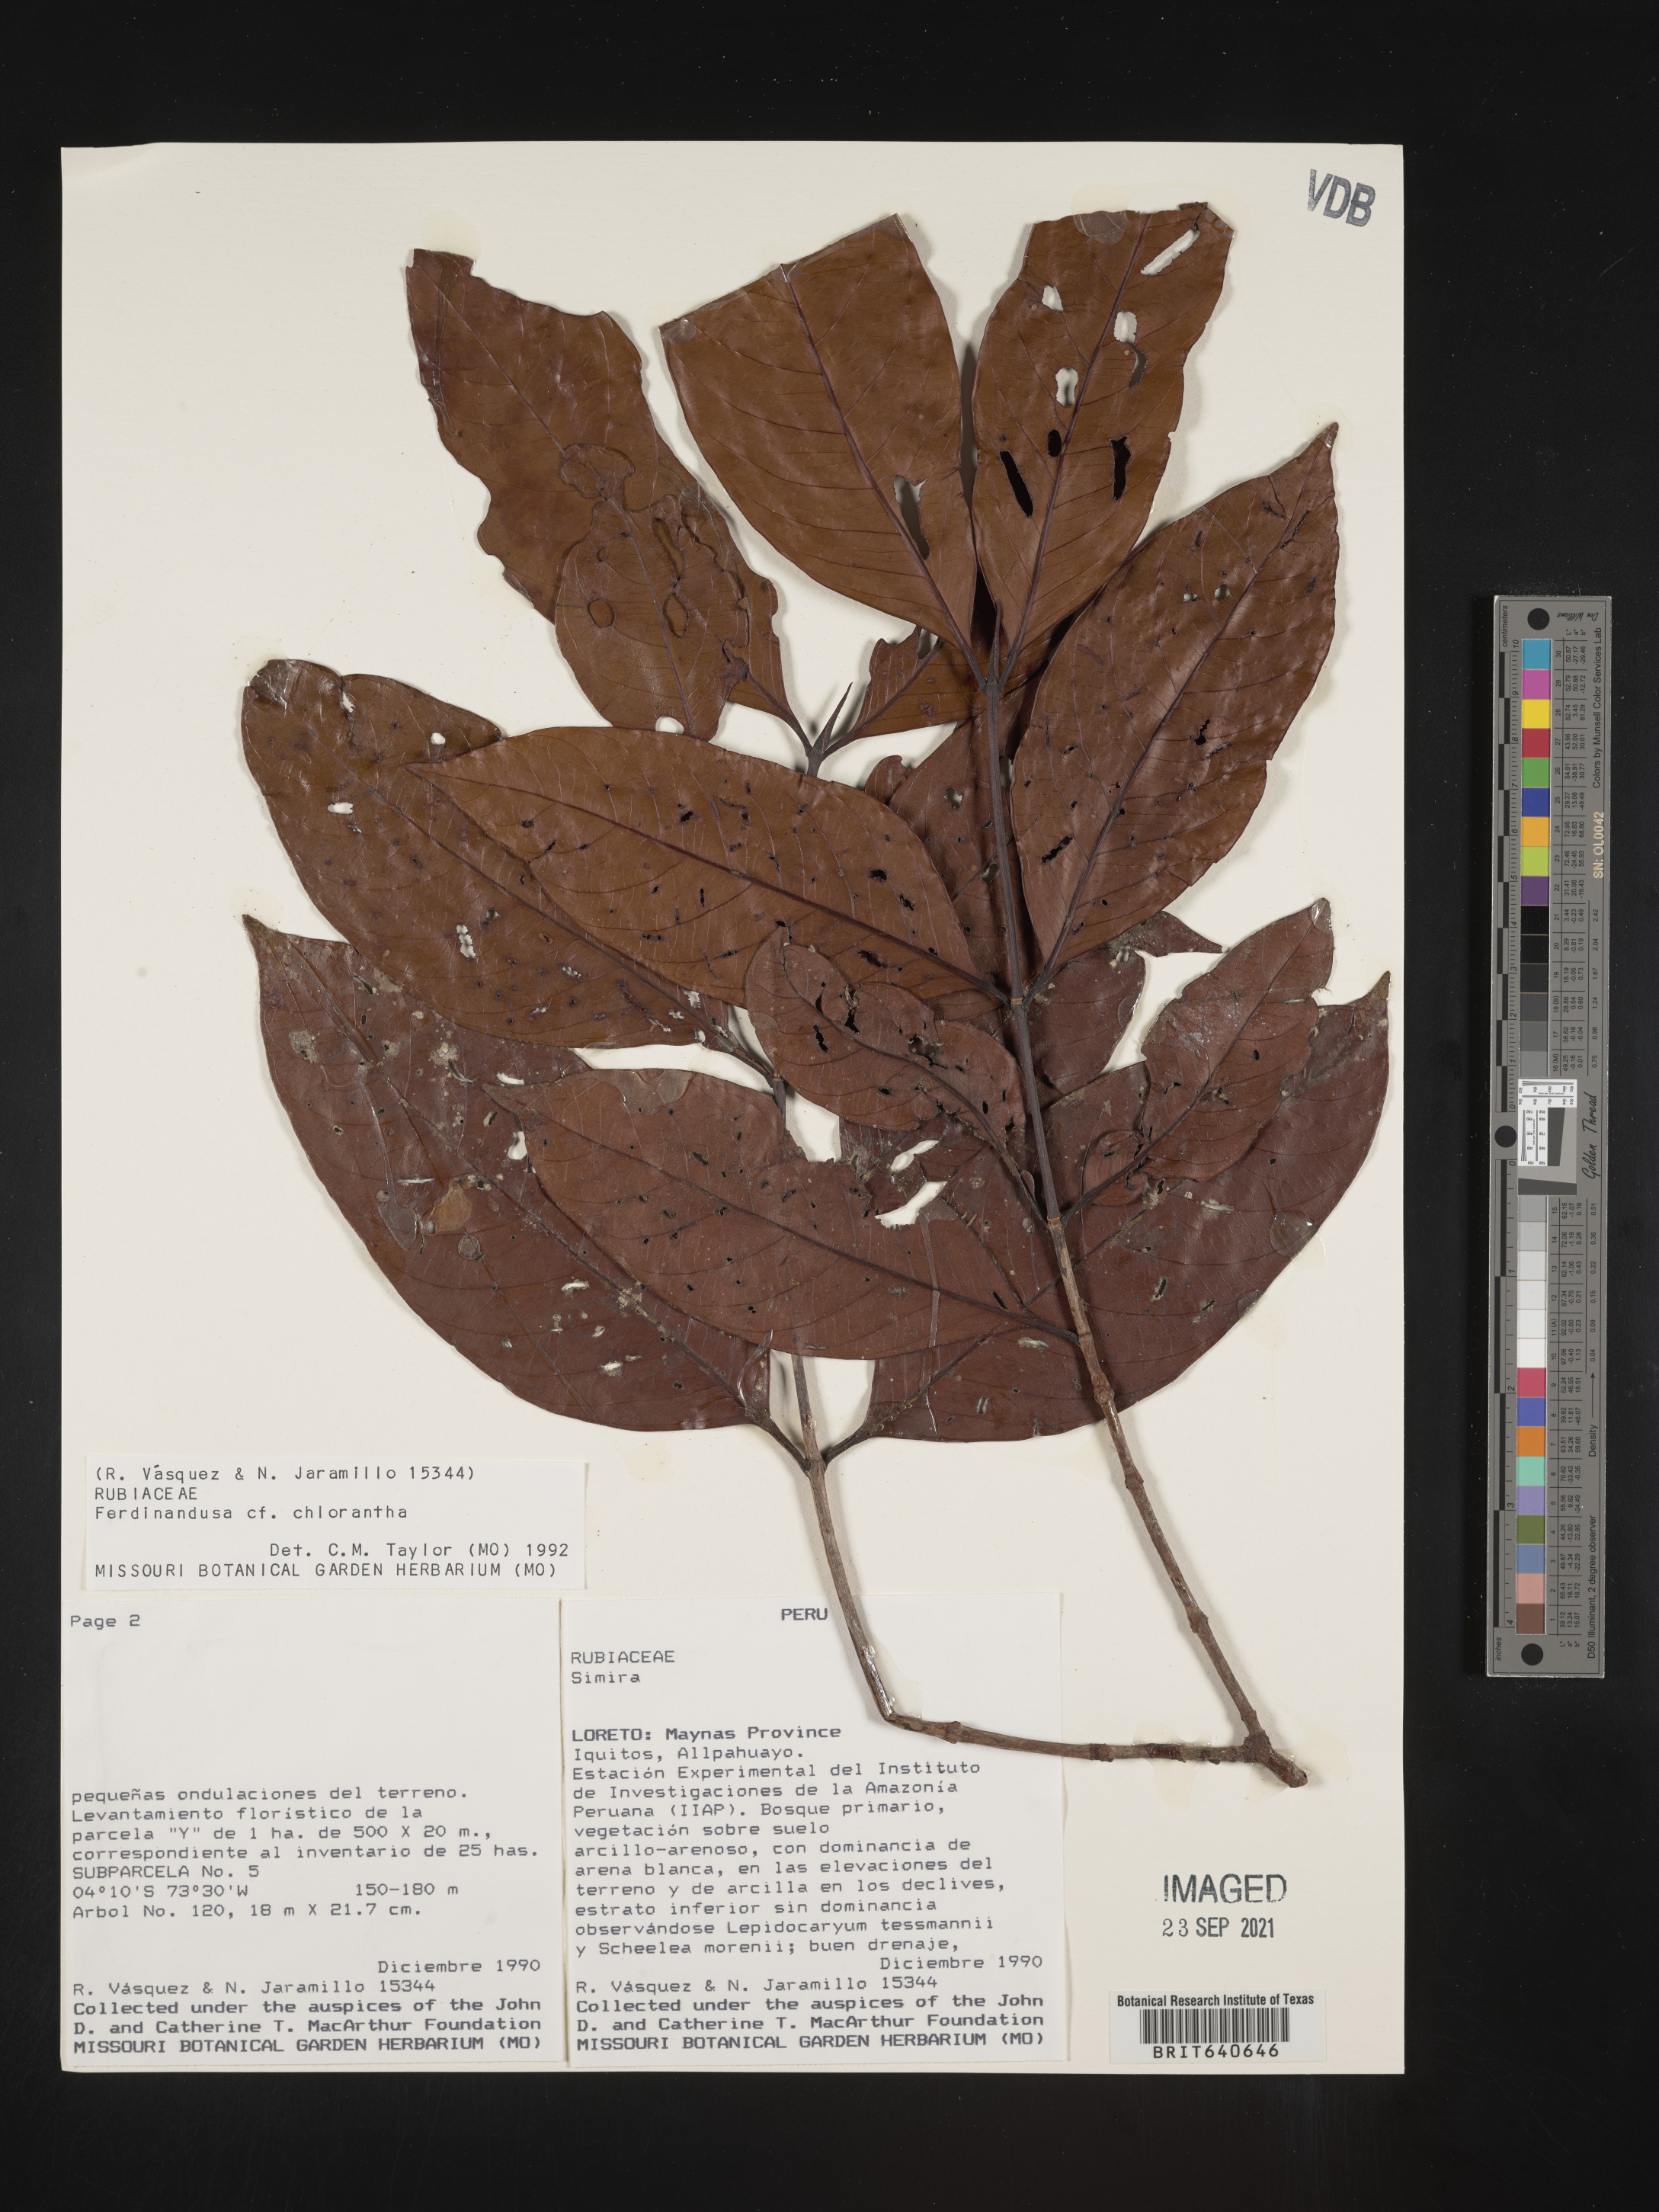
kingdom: Plantae
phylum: Tracheophyta
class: Magnoliopsida
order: Gentianales
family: Rubiaceae
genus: Ferdinandusa
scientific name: Ferdinandusa
